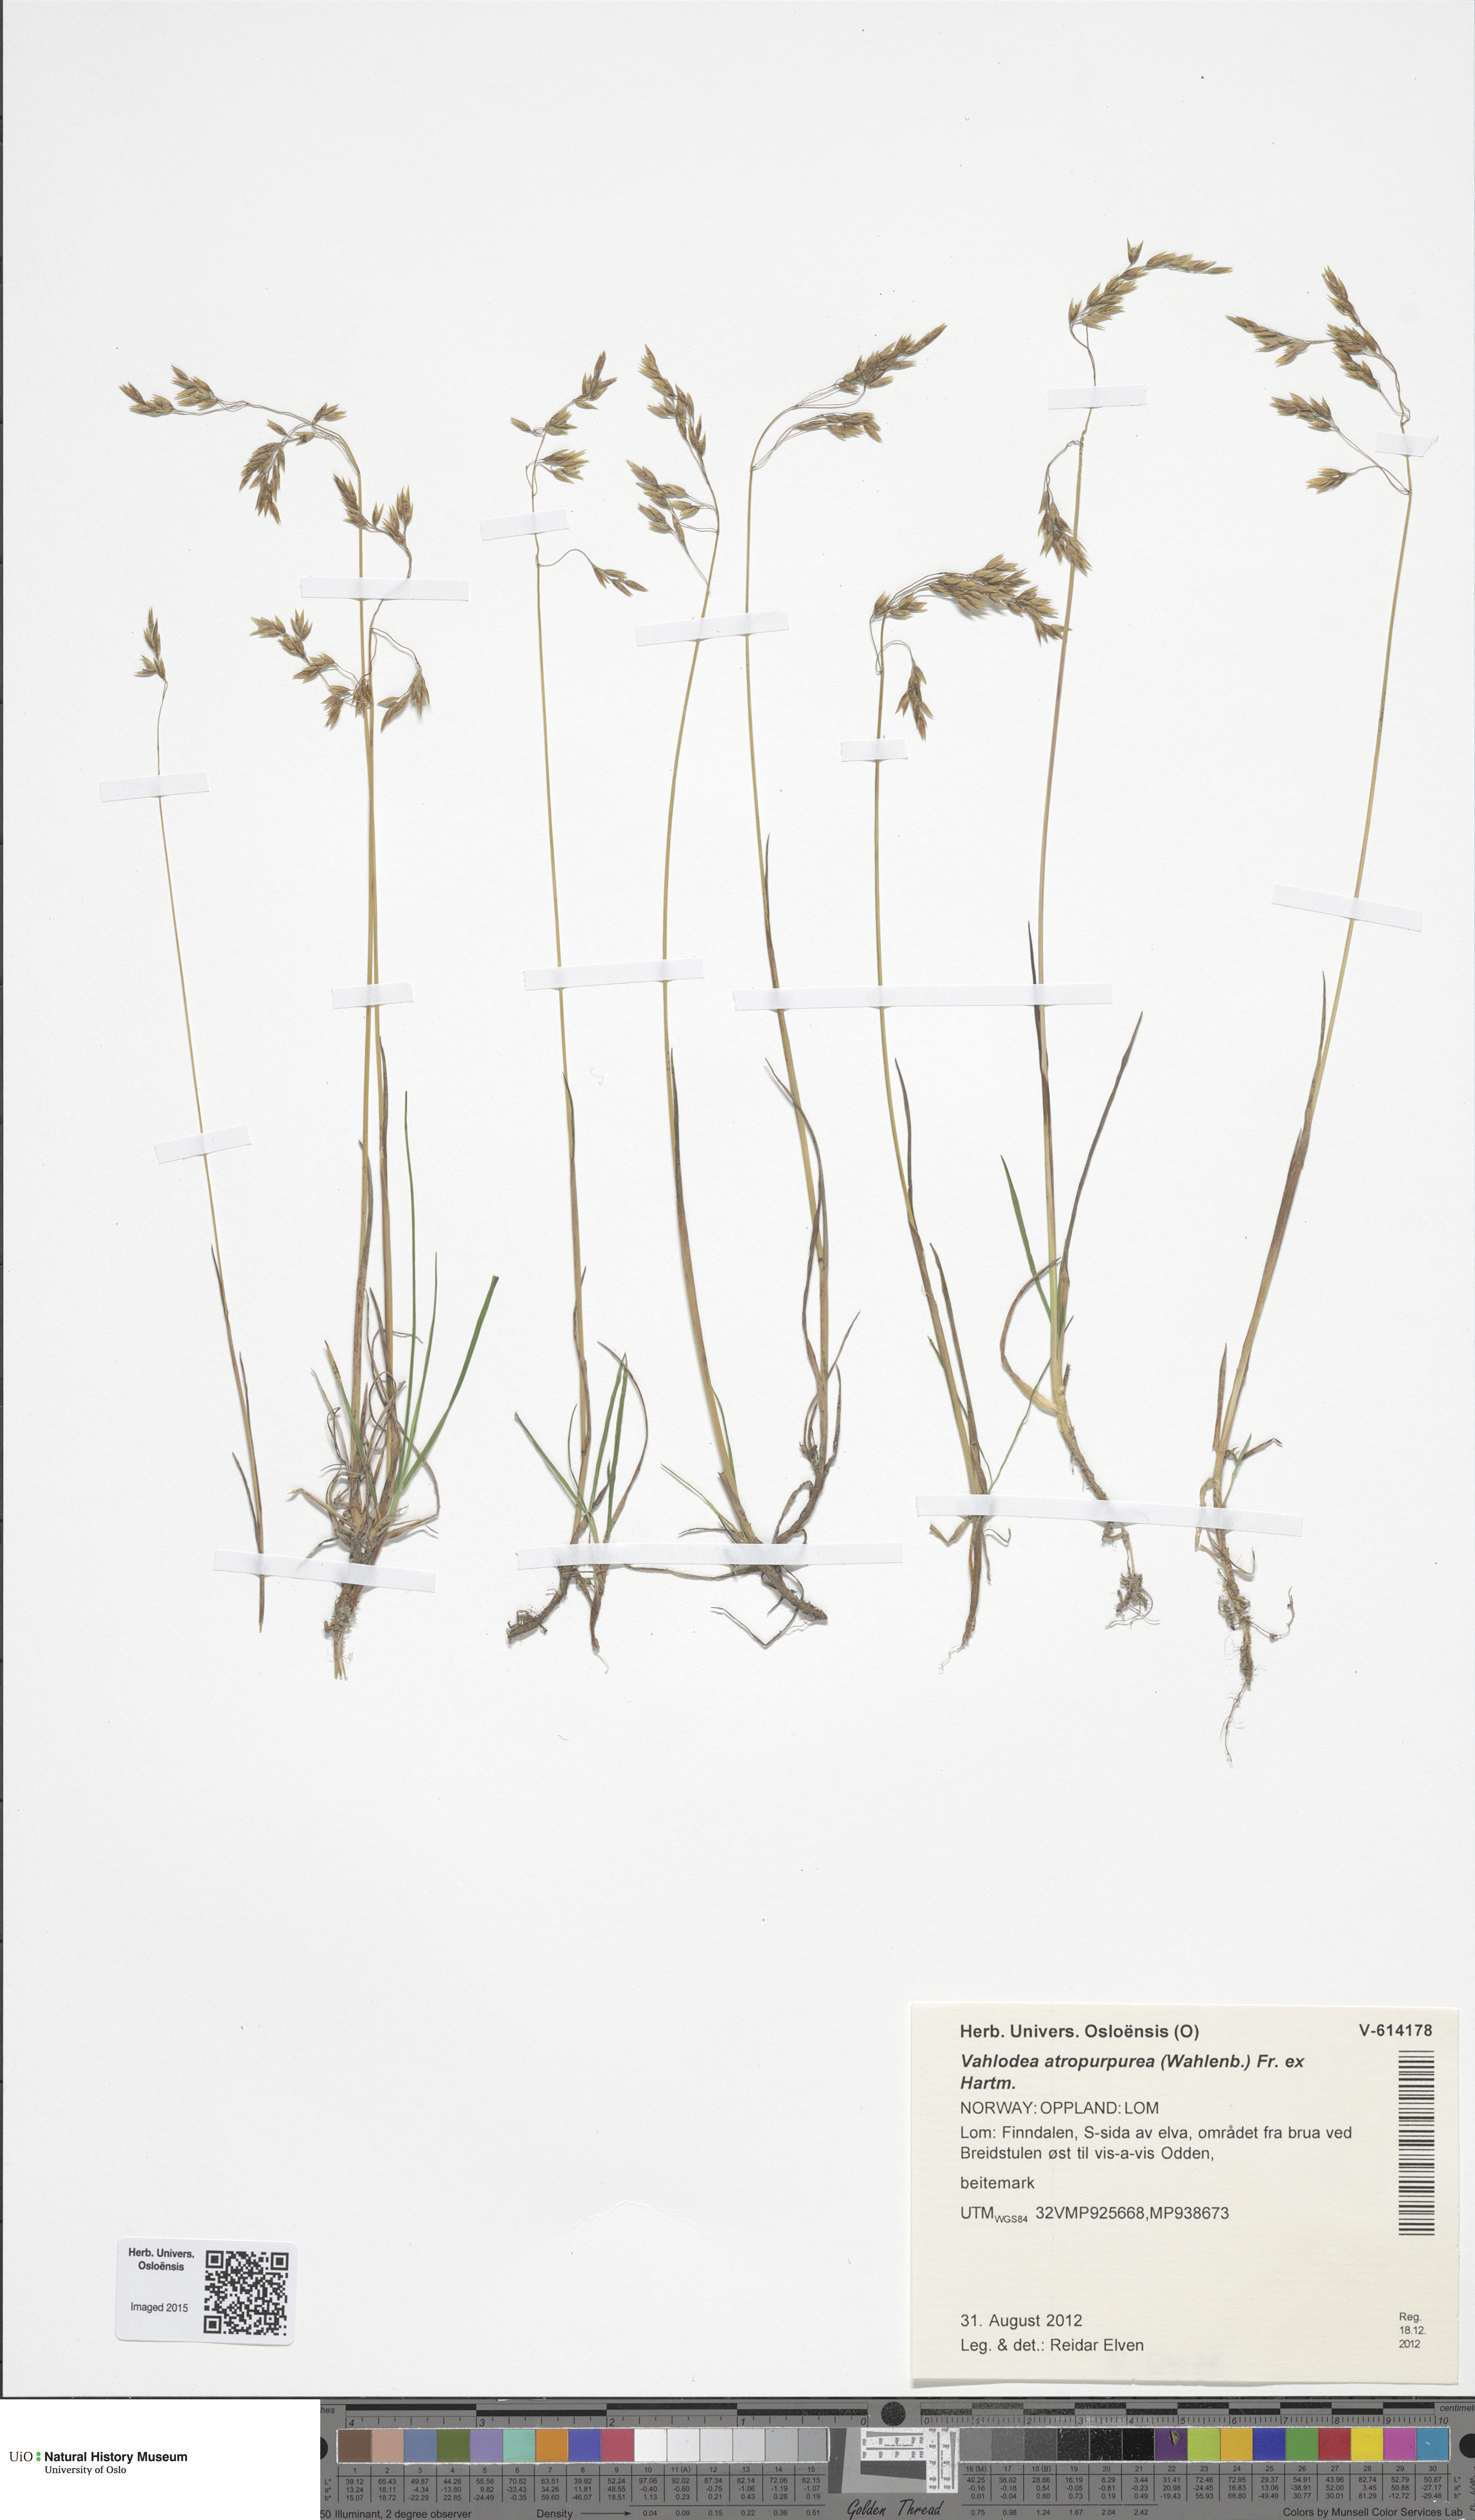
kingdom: Plantae
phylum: Tracheophyta
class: Liliopsida
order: Poales
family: Poaceae
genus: Vahlodea
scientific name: Vahlodea atropurpurea
